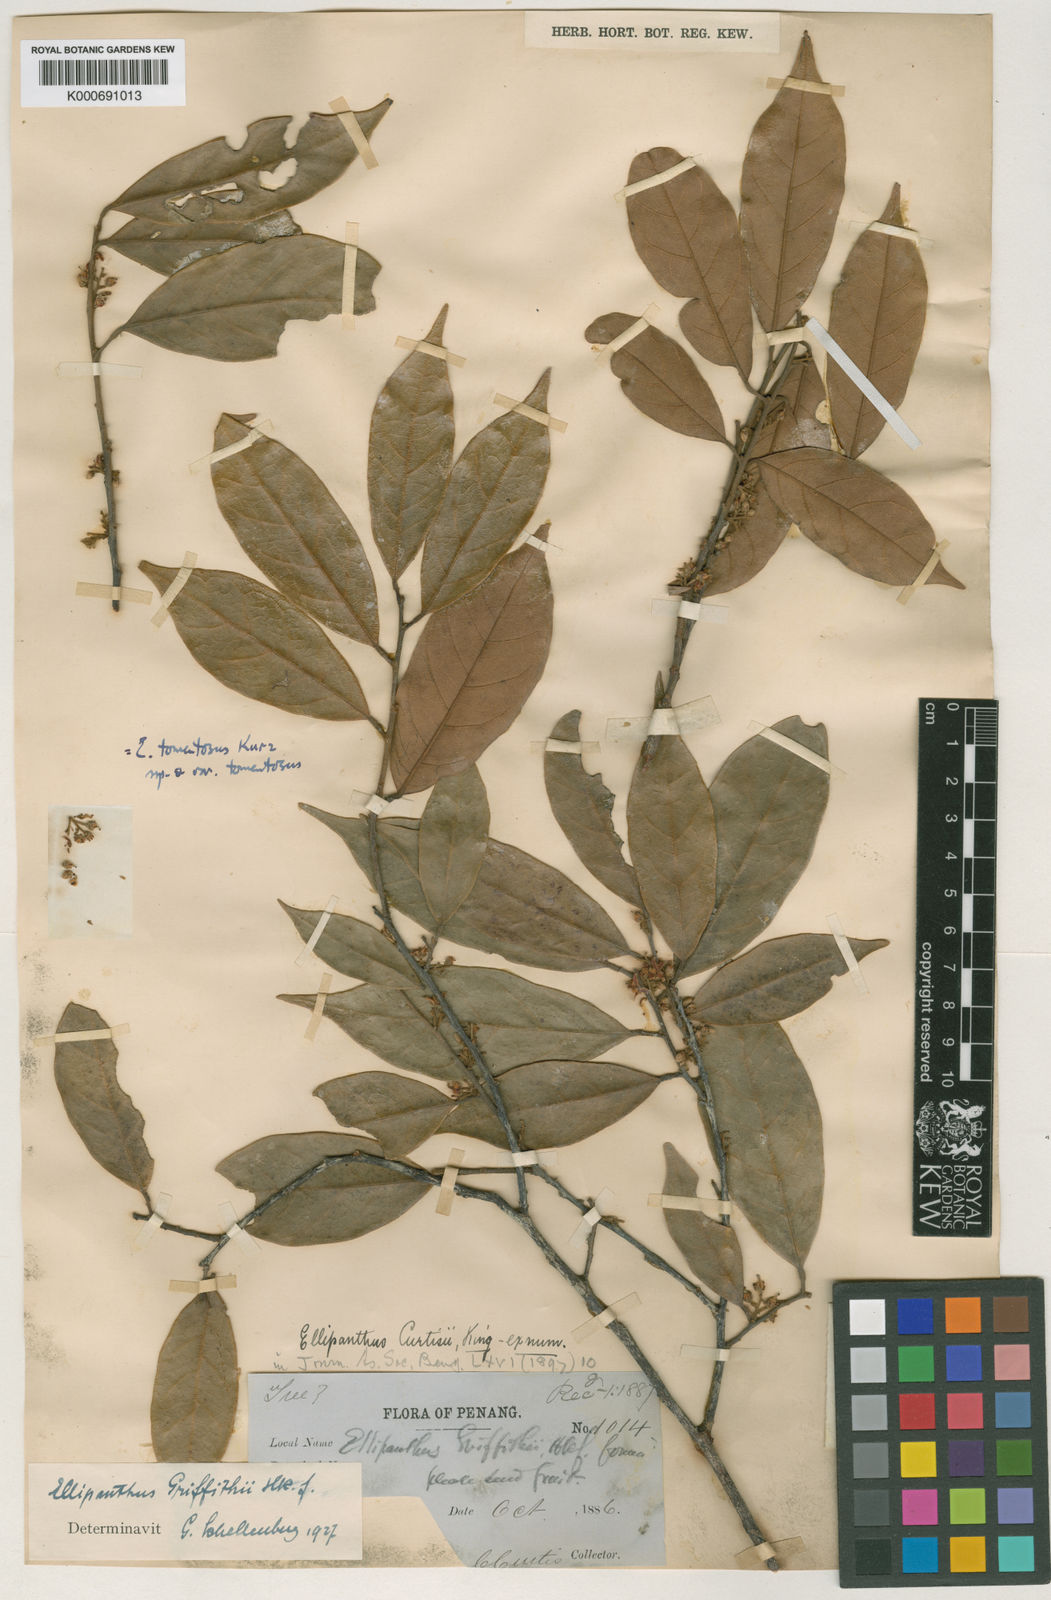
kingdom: Plantae
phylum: Tracheophyta
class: Magnoliopsida
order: Oxalidales
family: Connaraceae
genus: Ellipanthus
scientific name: Ellipanthus tomentosus
